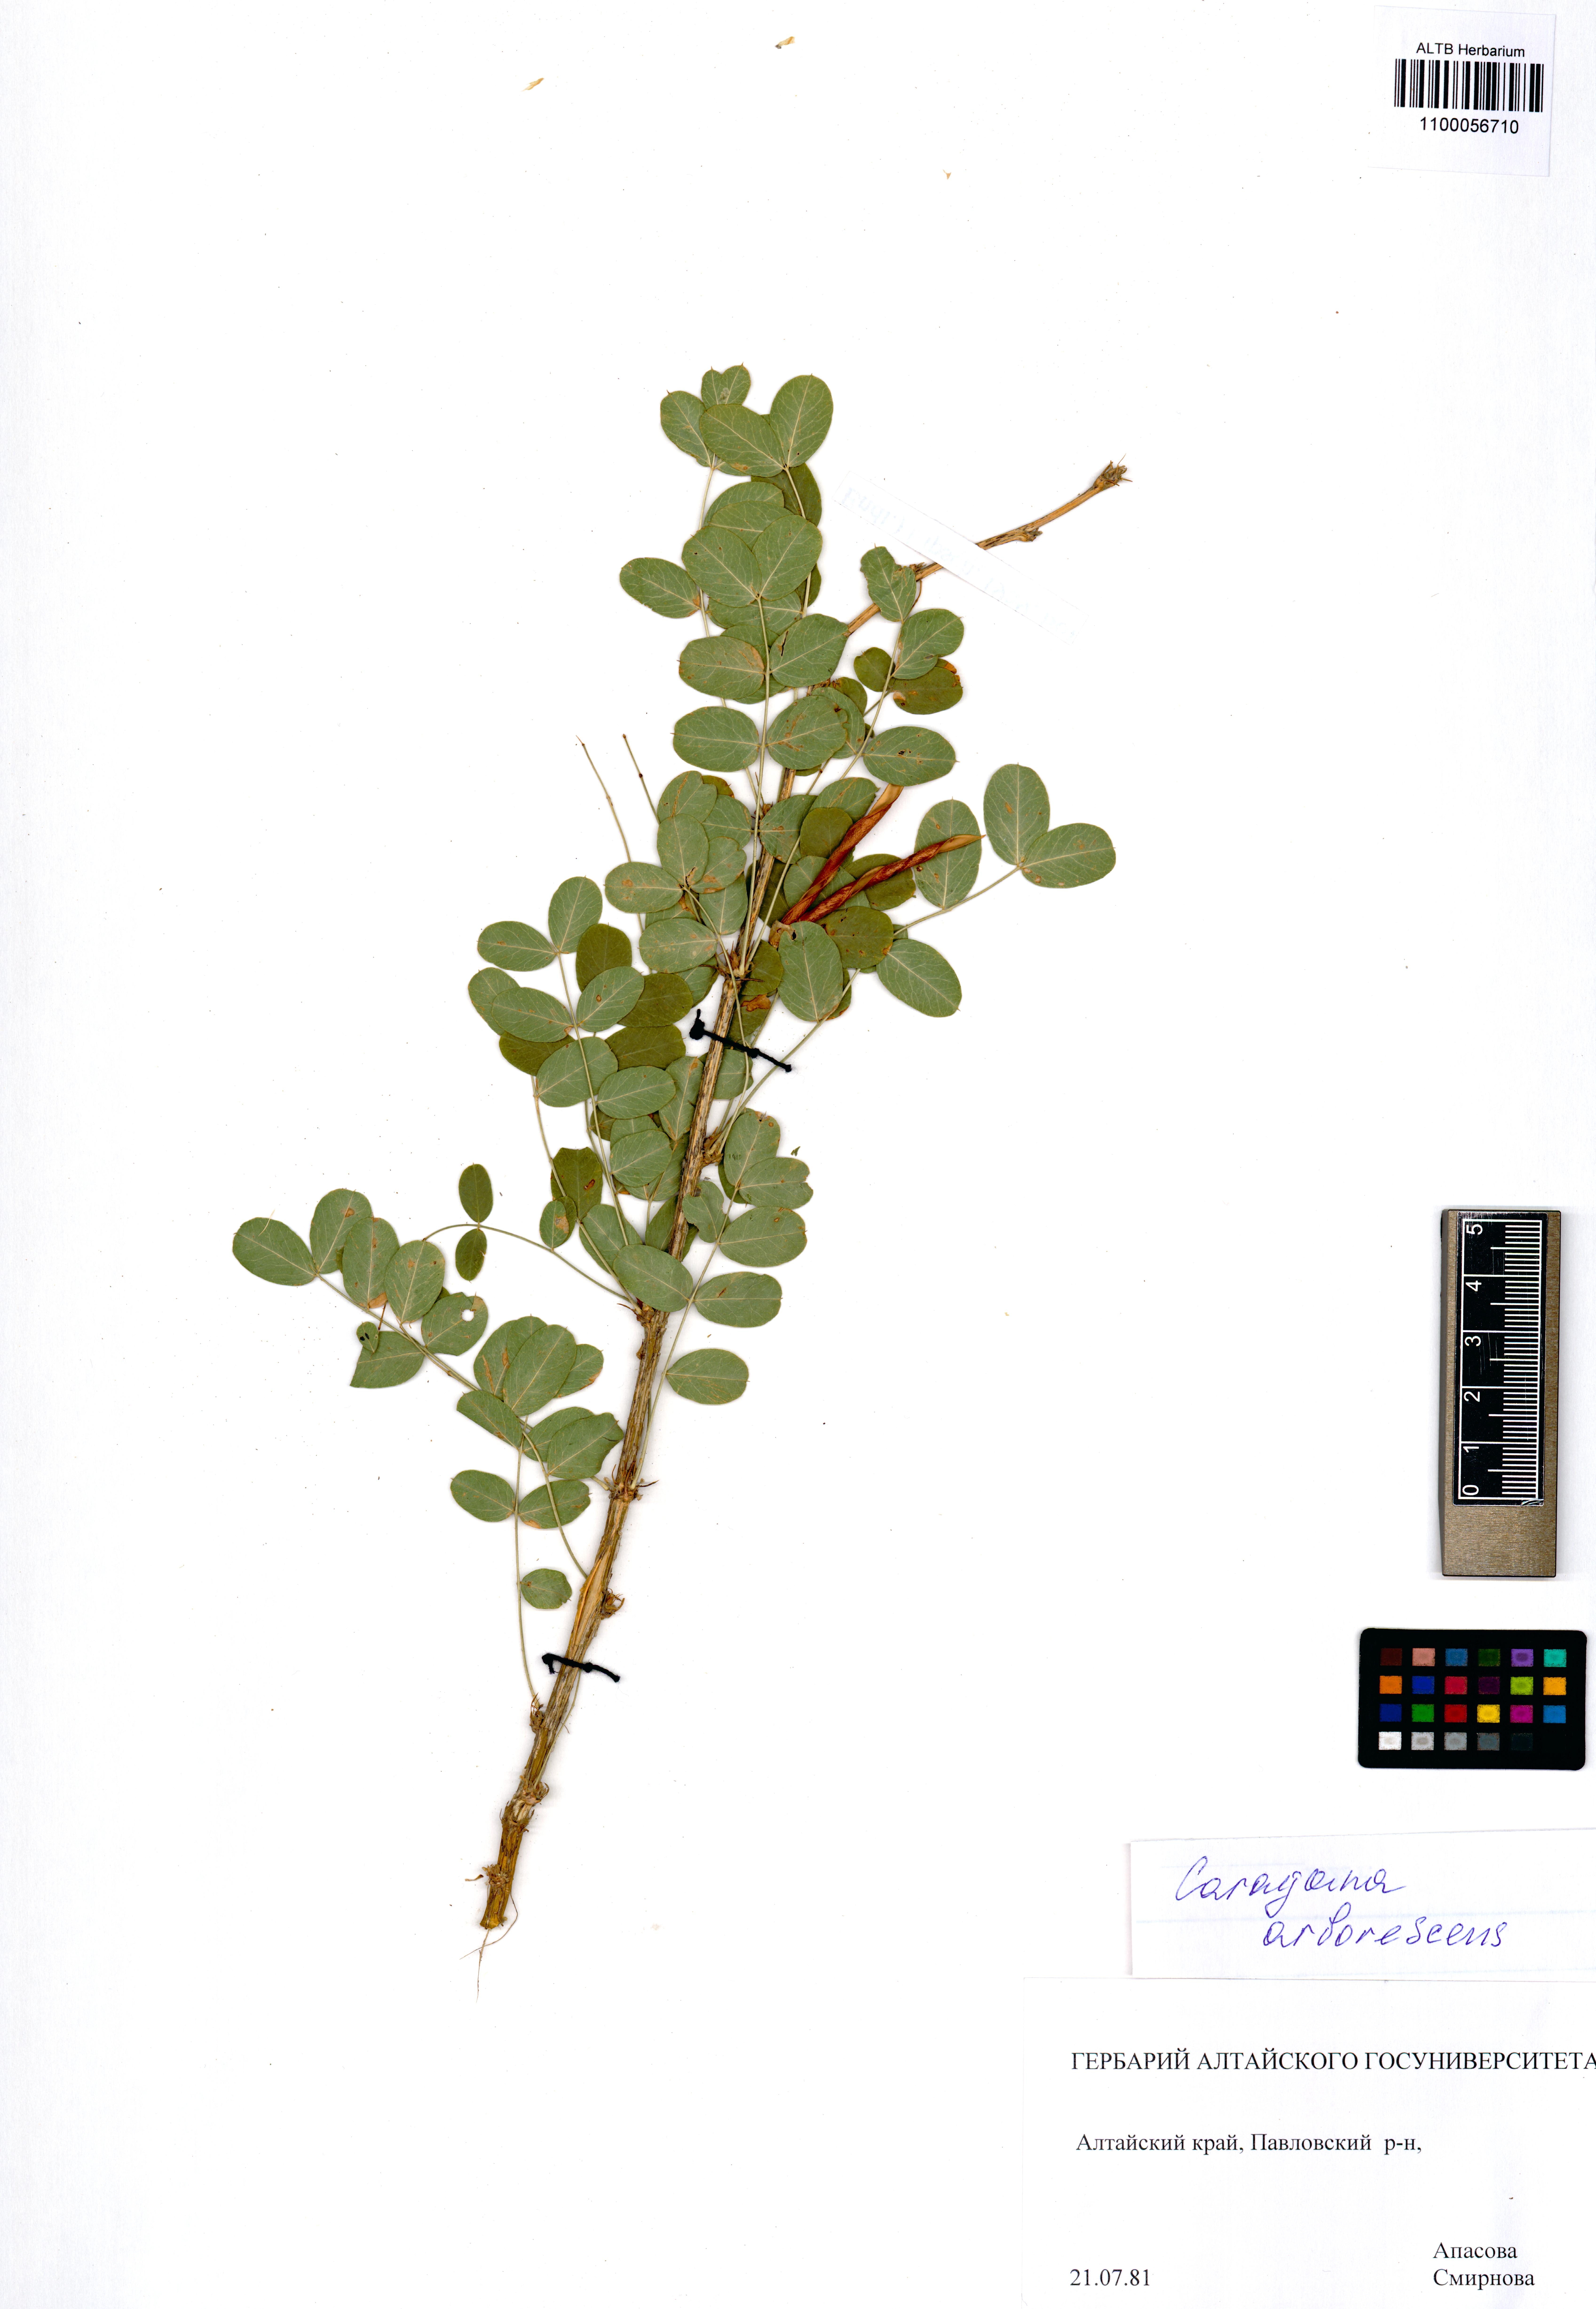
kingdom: Plantae
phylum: Tracheophyta
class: Magnoliopsida
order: Fabales
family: Fabaceae
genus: Caragana
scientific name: Caragana arborescens
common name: Siberian peashrub
